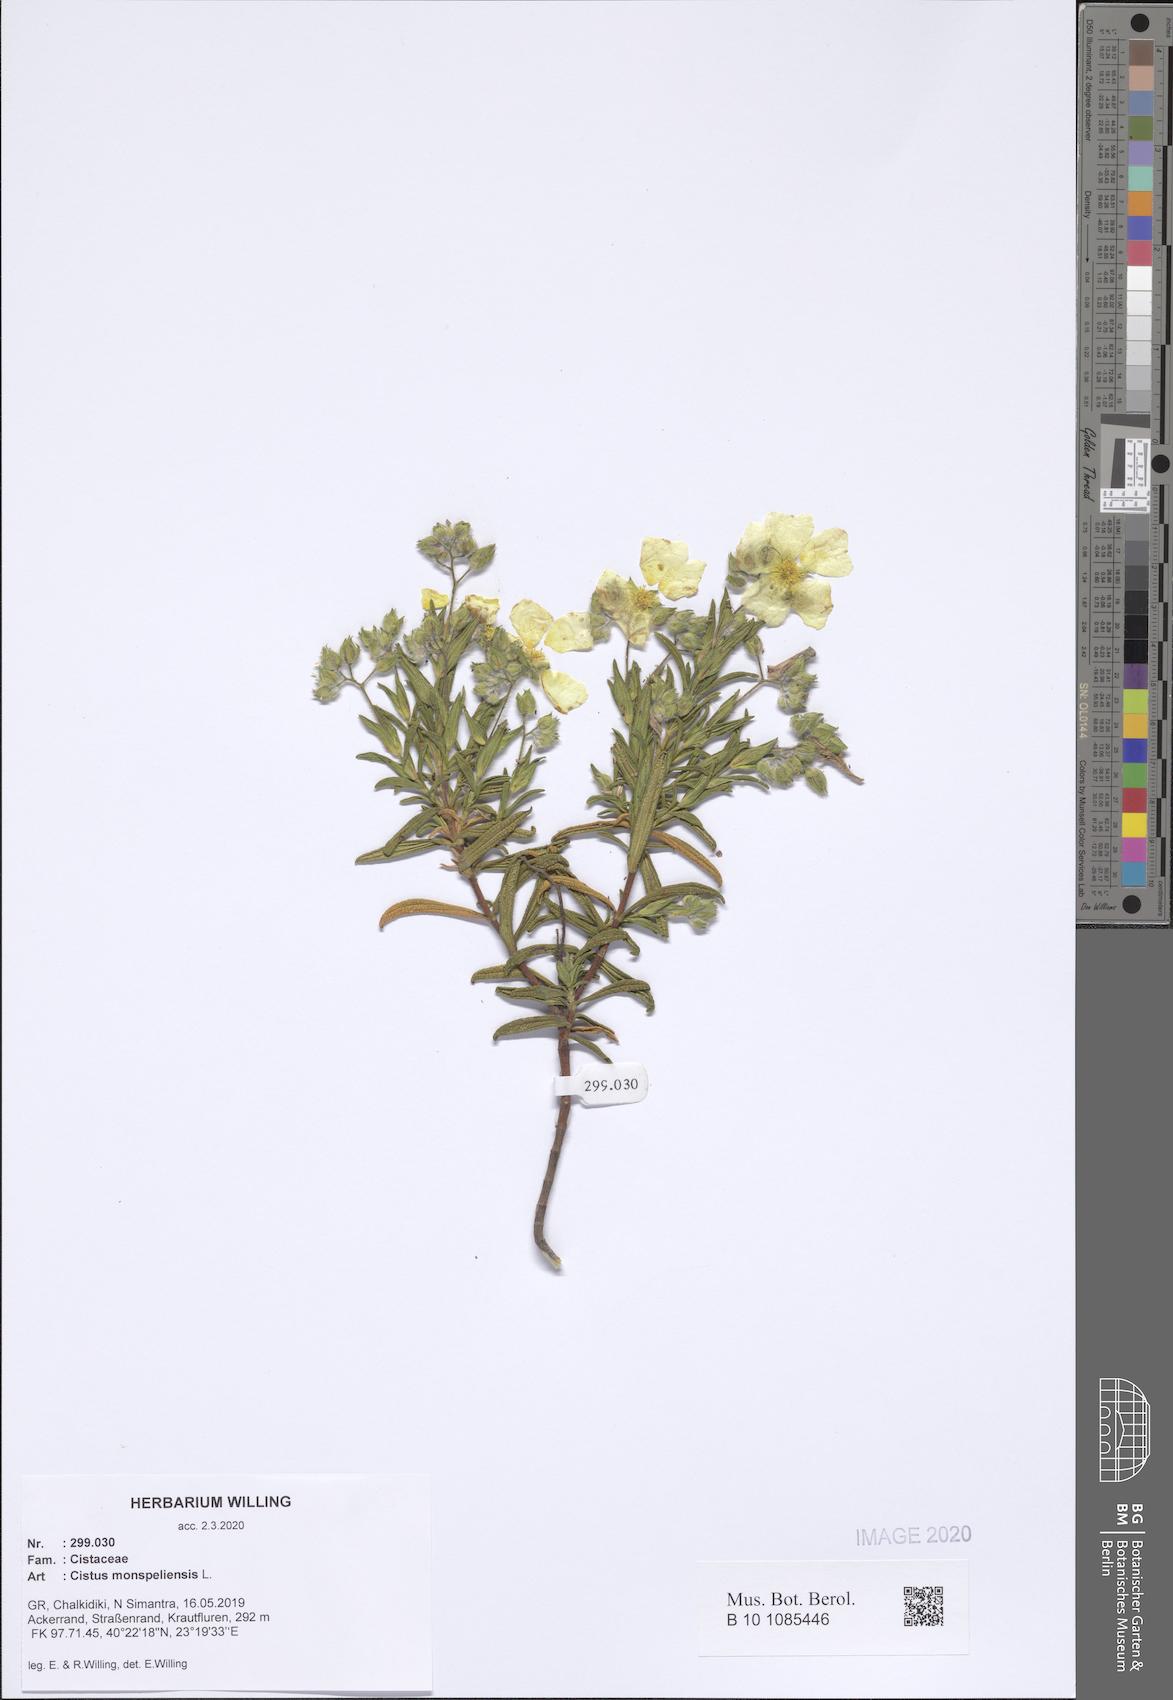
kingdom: Plantae
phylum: Tracheophyta
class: Magnoliopsida
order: Malvales
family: Cistaceae
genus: Cistus
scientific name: Cistus monspeliensis
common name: Montpelier cistus
